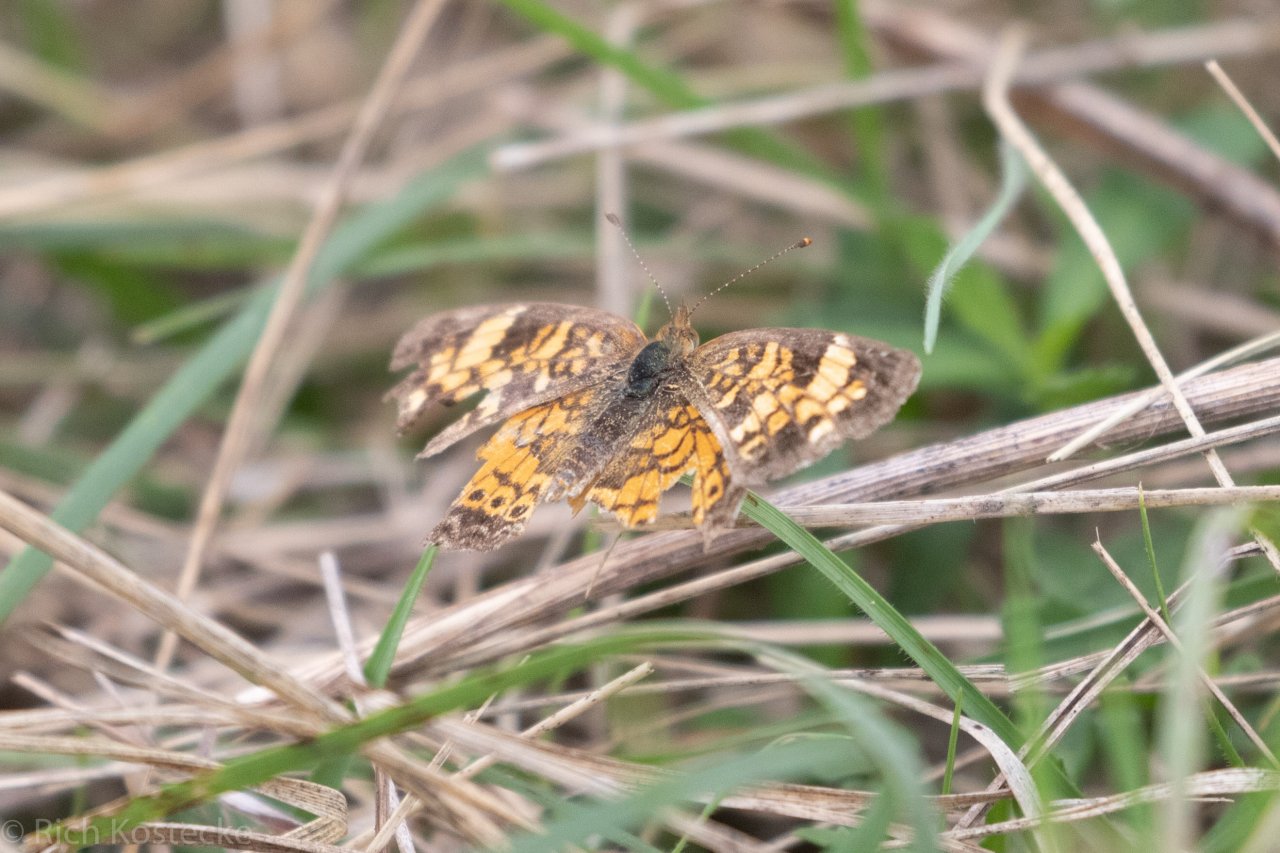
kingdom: Animalia
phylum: Arthropoda
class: Insecta
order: Lepidoptera
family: Nymphalidae
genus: Phyciodes
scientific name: Phyciodes tharos
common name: Pearl Crescent
